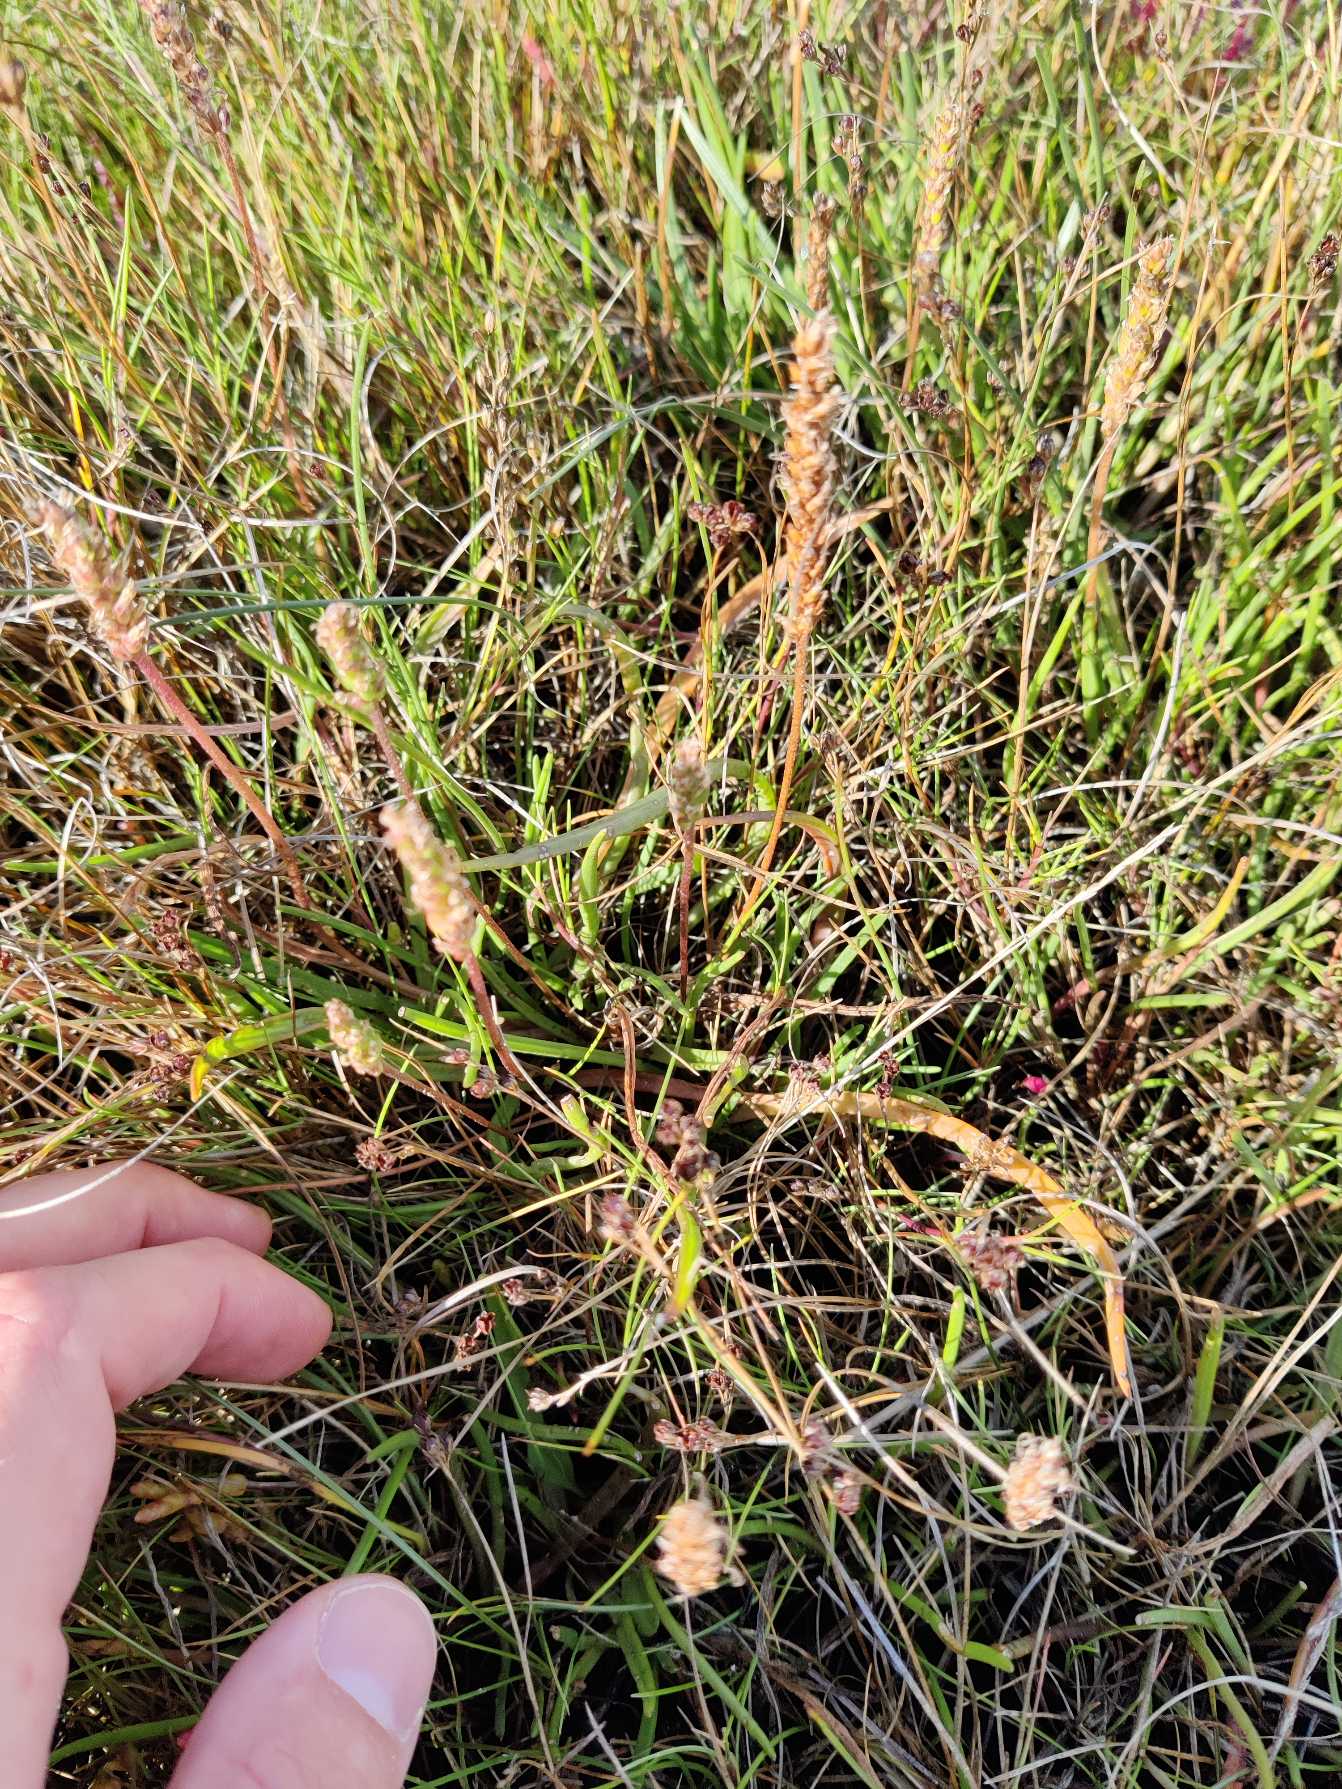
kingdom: Plantae
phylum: Tracheophyta
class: Magnoliopsida
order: Lamiales
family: Plantaginaceae
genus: Plantago
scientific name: Plantago maritima
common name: Strand-vejbred
